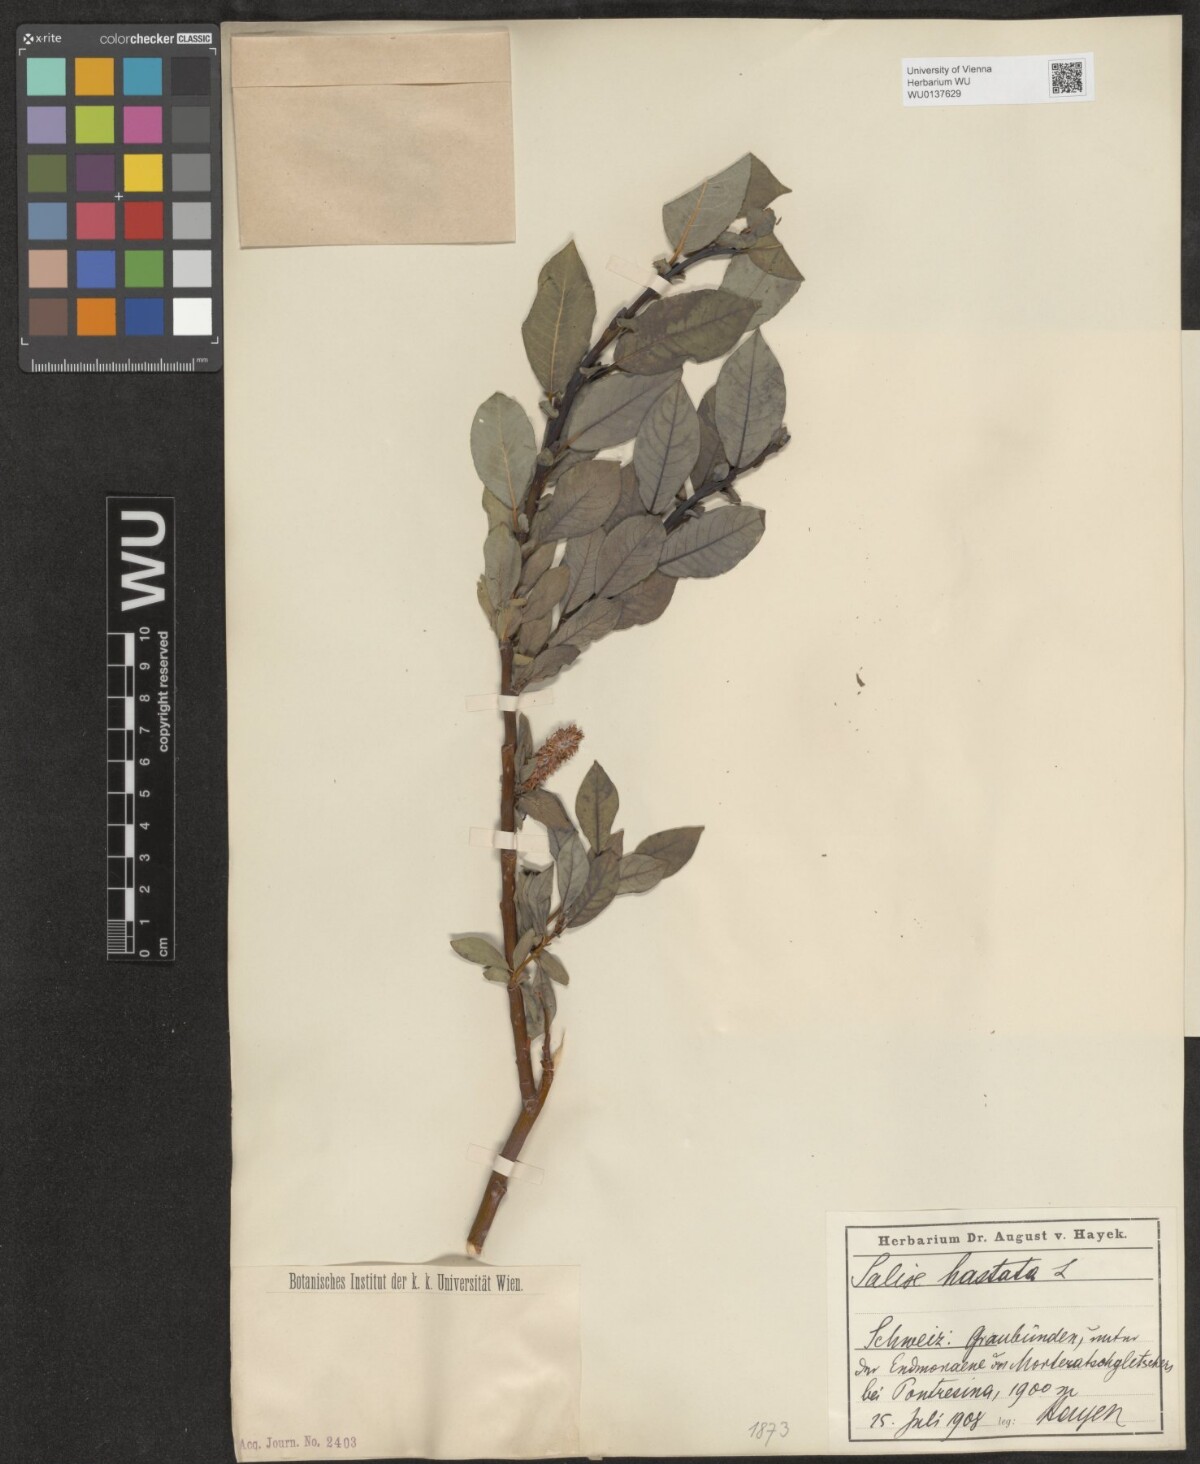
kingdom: Plantae
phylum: Tracheophyta
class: Magnoliopsida
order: Malpighiales
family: Salicaceae
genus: Salix
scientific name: Salix hastata
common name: Halberd willow
